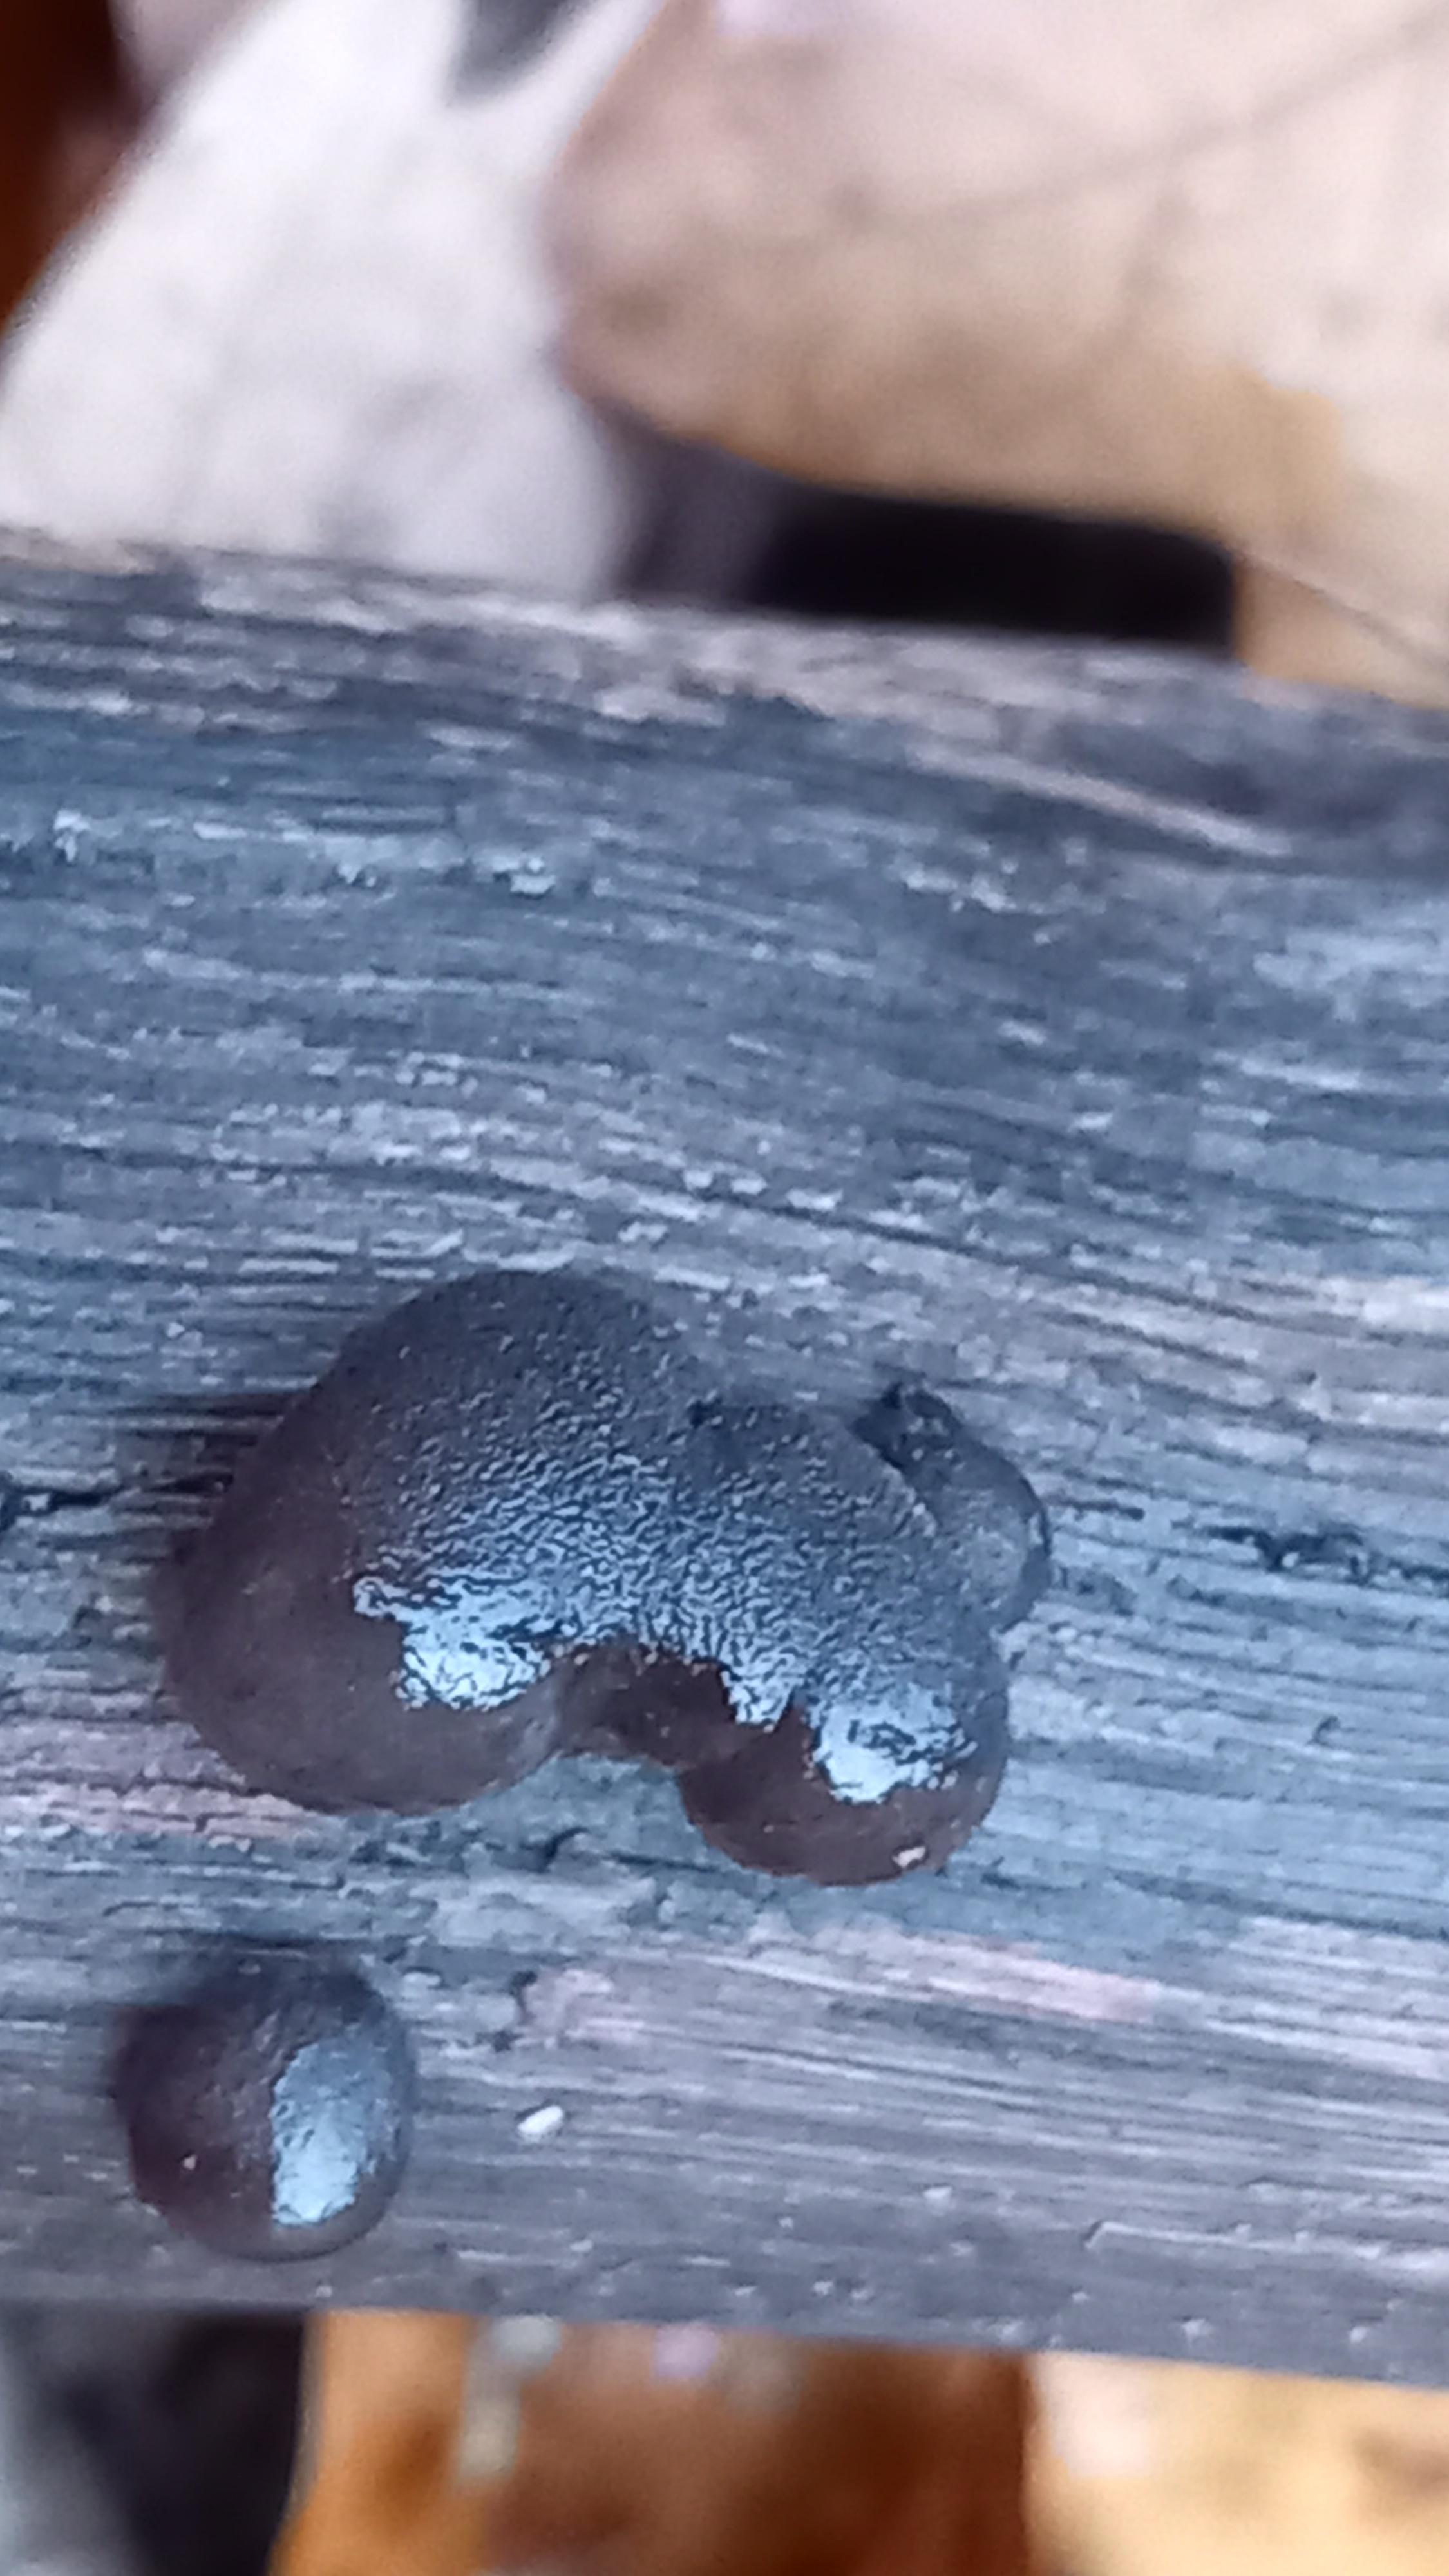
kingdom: Fungi
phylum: Basidiomycota
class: Agaricomycetes
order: Auriculariales
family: Auriculariaceae
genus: Exidia
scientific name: Exidia glandulosa
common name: ege-bævretop
